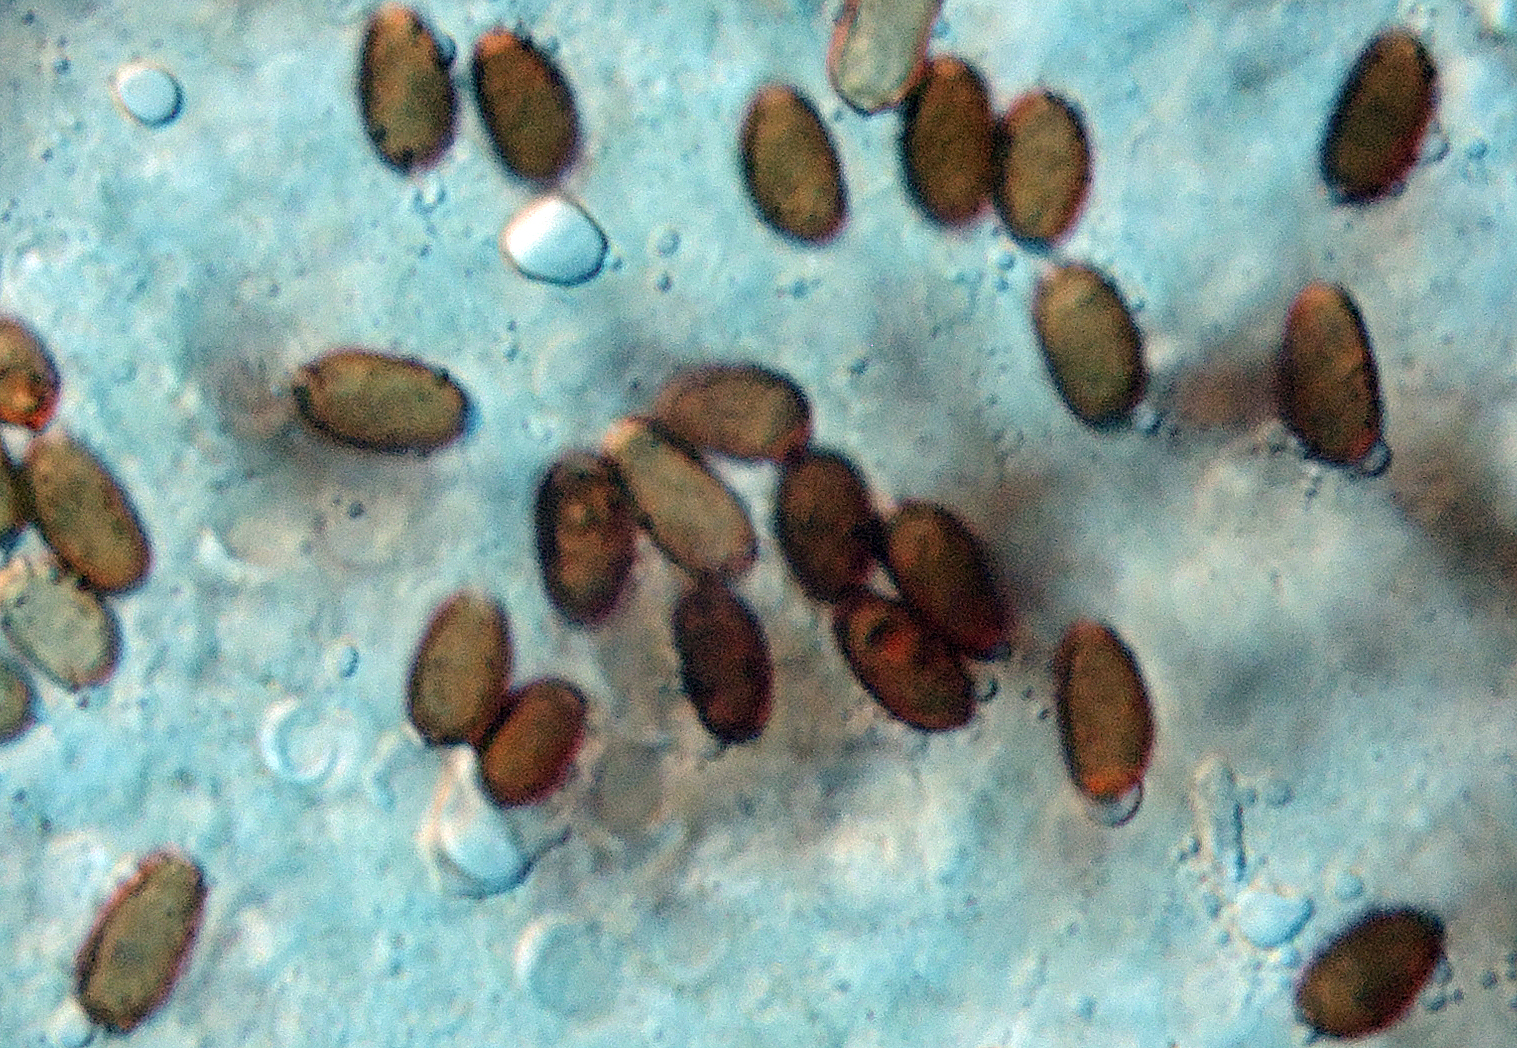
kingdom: Fungi
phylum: Basidiomycota
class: Agaricomycetes
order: Agaricales
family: Psathyrellaceae
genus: Psathyrella
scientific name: Psathyrella obtusata
